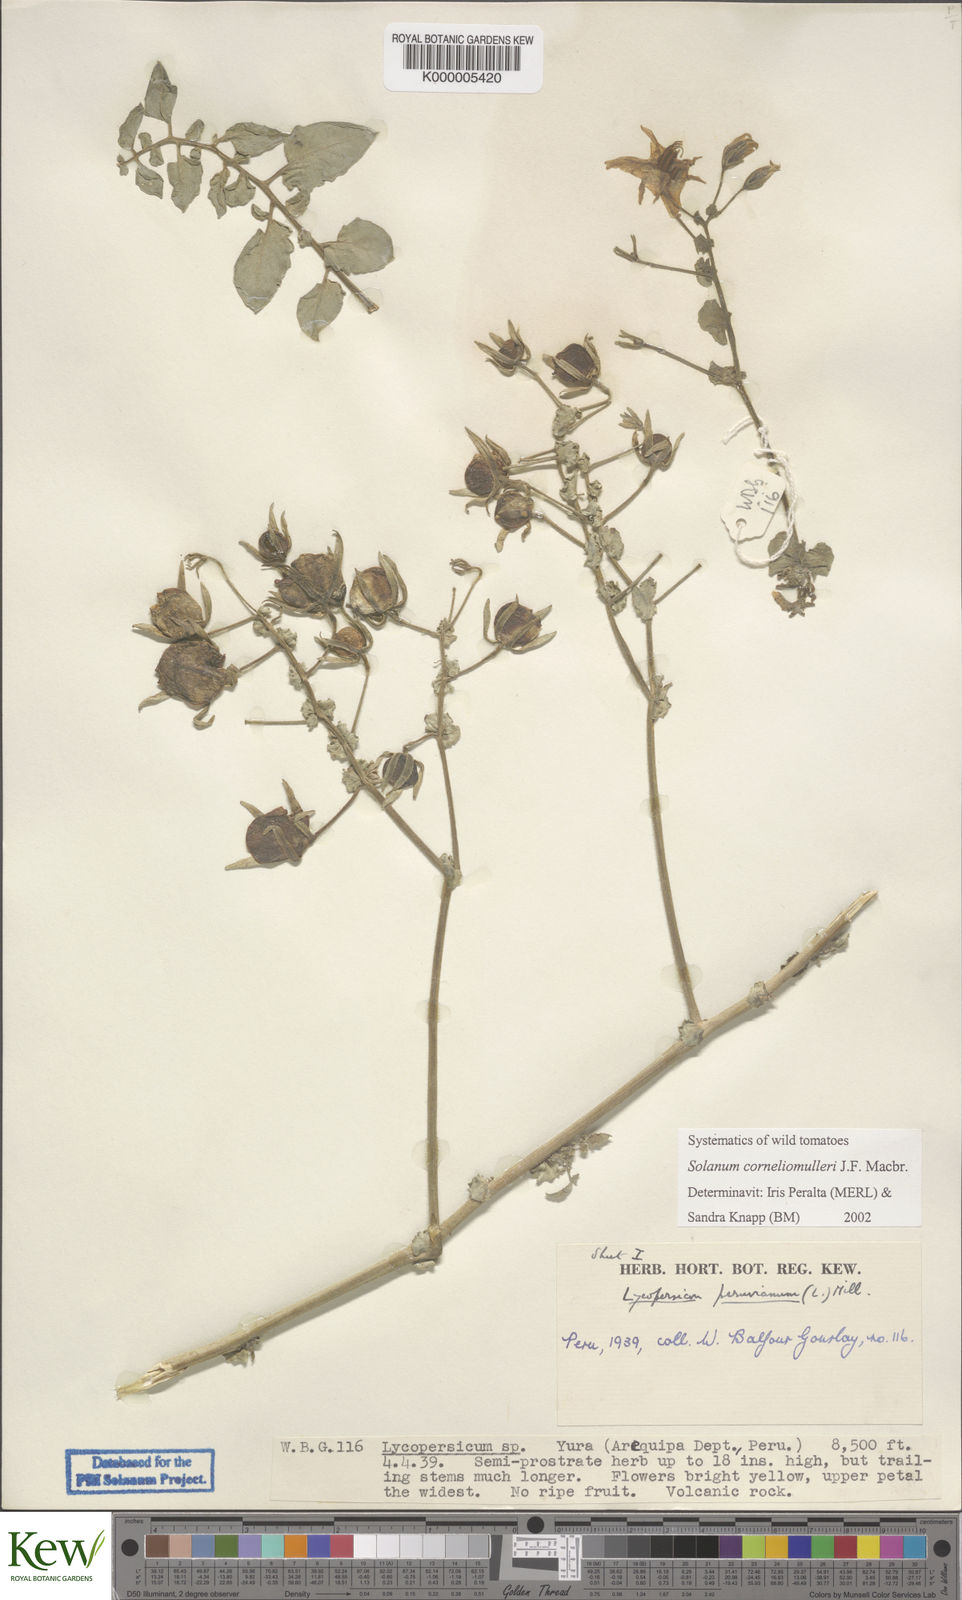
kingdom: Plantae
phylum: Tracheophyta
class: Magnoliopsida
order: Solanales
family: Solanaceae
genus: Solanum
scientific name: Solanum corneliomulleri
